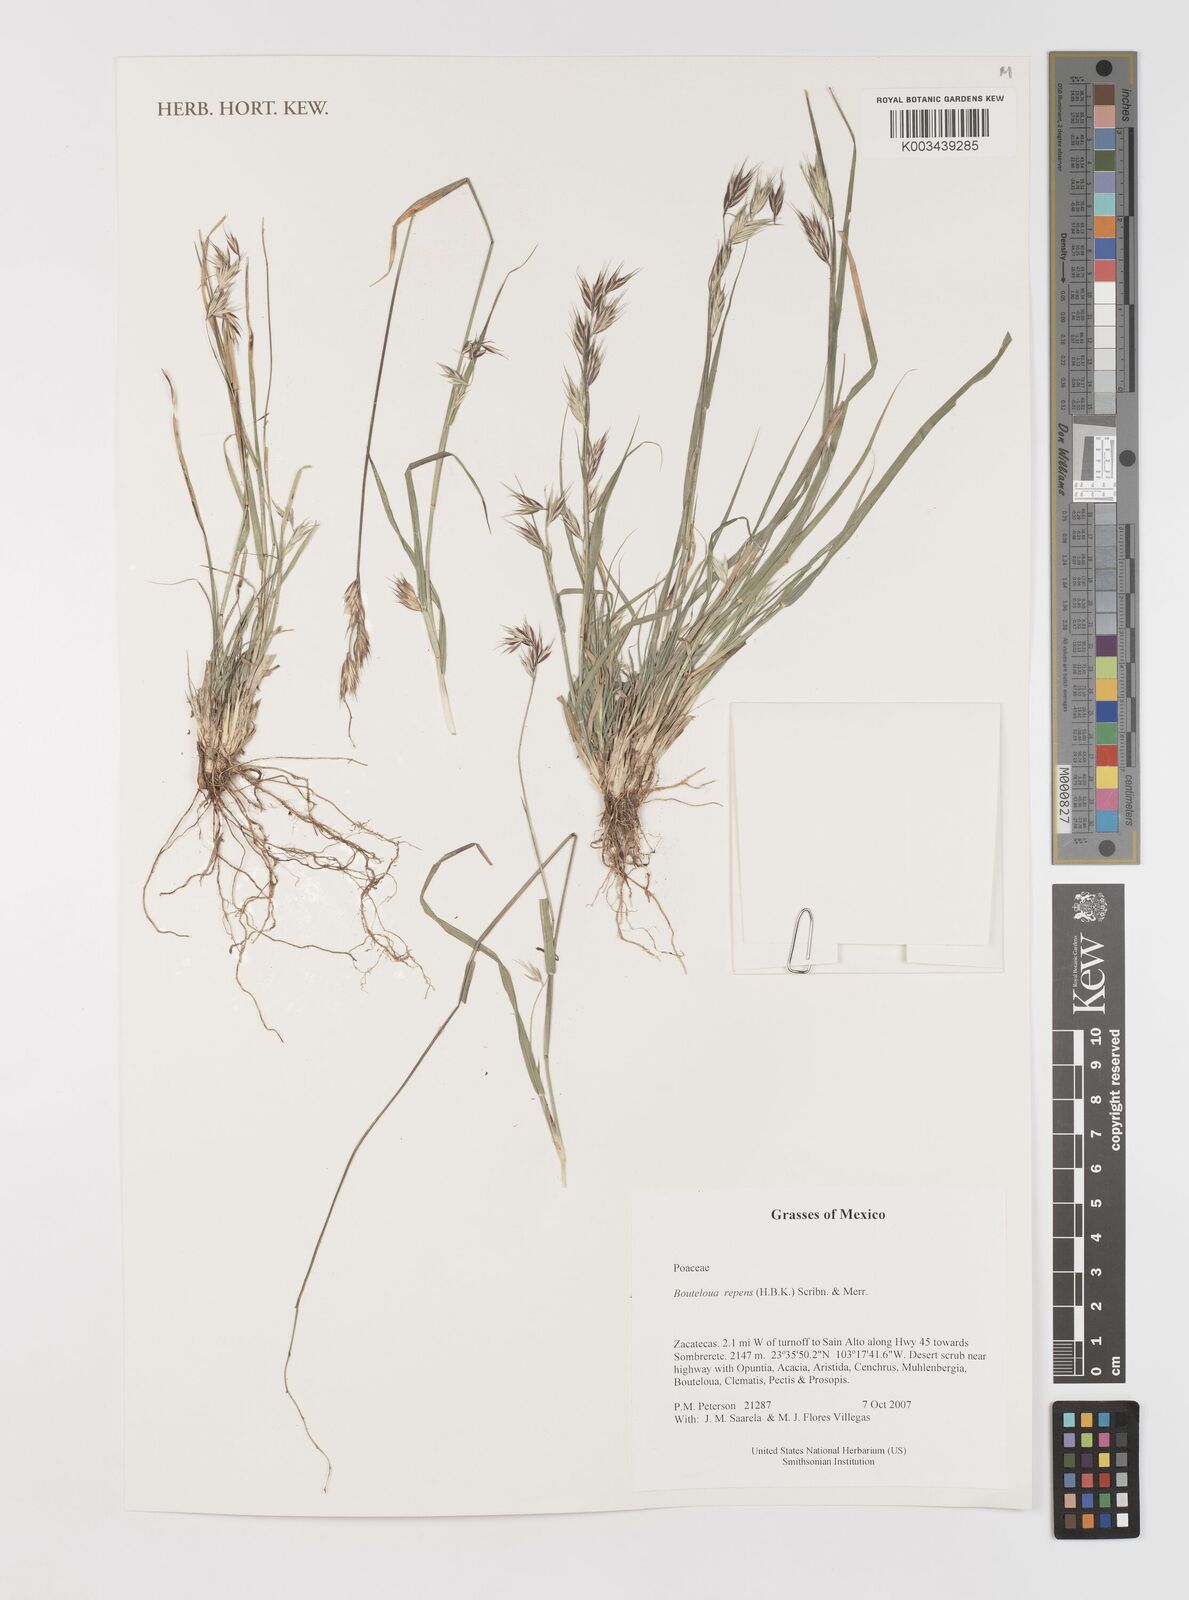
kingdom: Plantae
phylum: Tracheophyta
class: Liliopsida
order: Poales
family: Poaceae
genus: Bouteloua
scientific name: Bouteloua repens
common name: Slender grama
